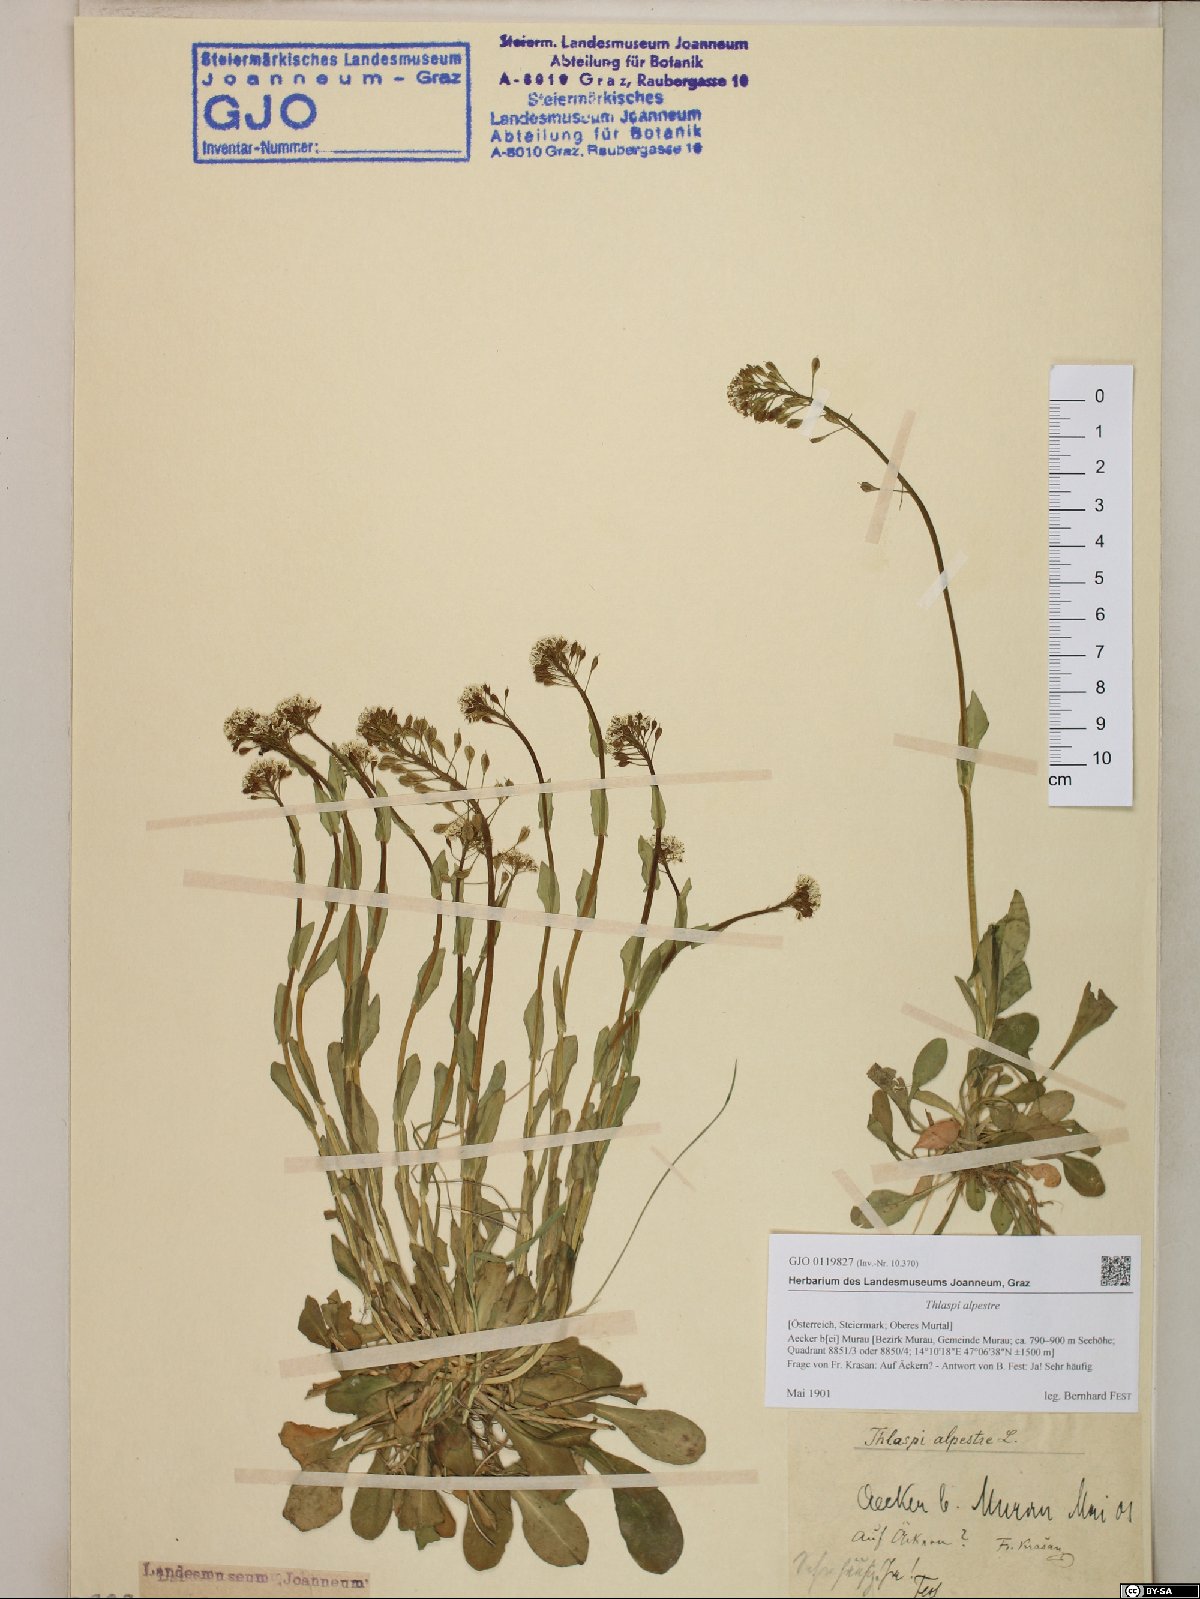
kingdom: Plantae
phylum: Tracheophyta
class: Magnoliopsida
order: Brassicales
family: Brassicaceae
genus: Noccaea
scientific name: Noccaea caerulescens
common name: Alpine pennycress
